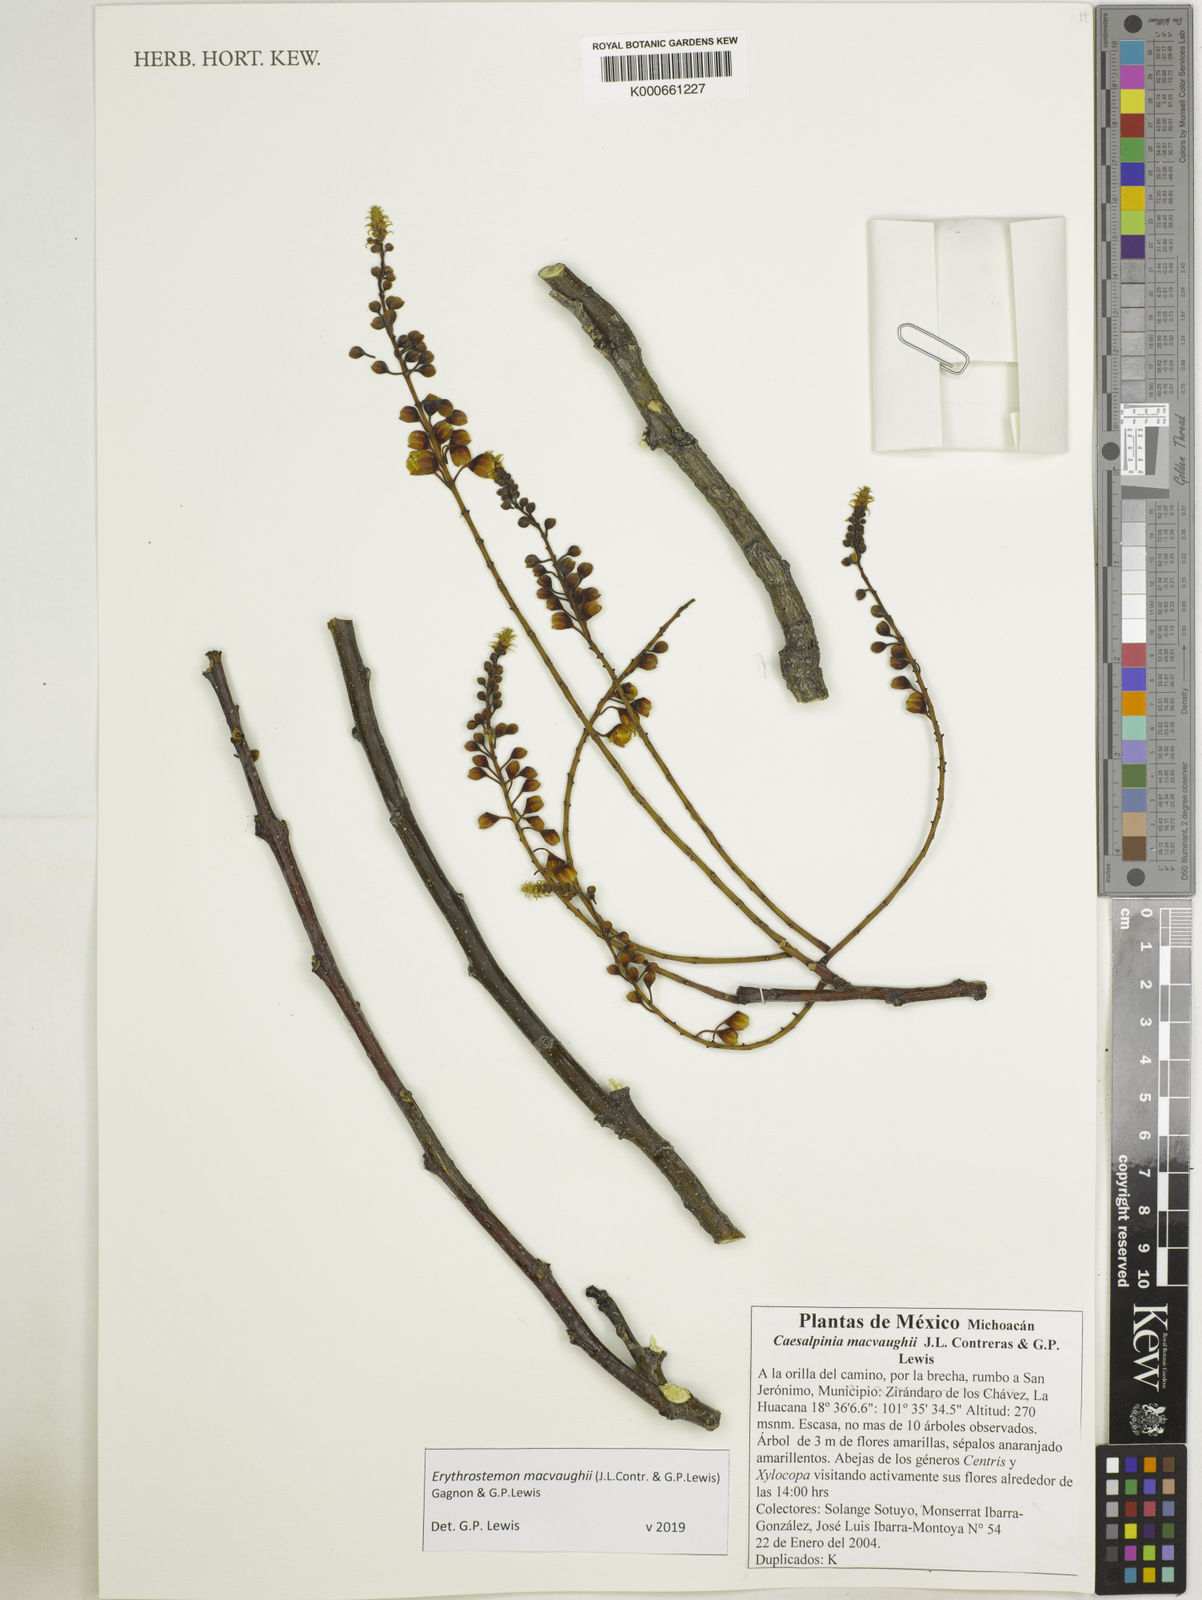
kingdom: Plantae
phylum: Tracheophyta
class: Magnoliopsida
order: Fabales
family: Fabaceae
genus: Erythrostemon
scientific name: Erythrostemon macvaughii
